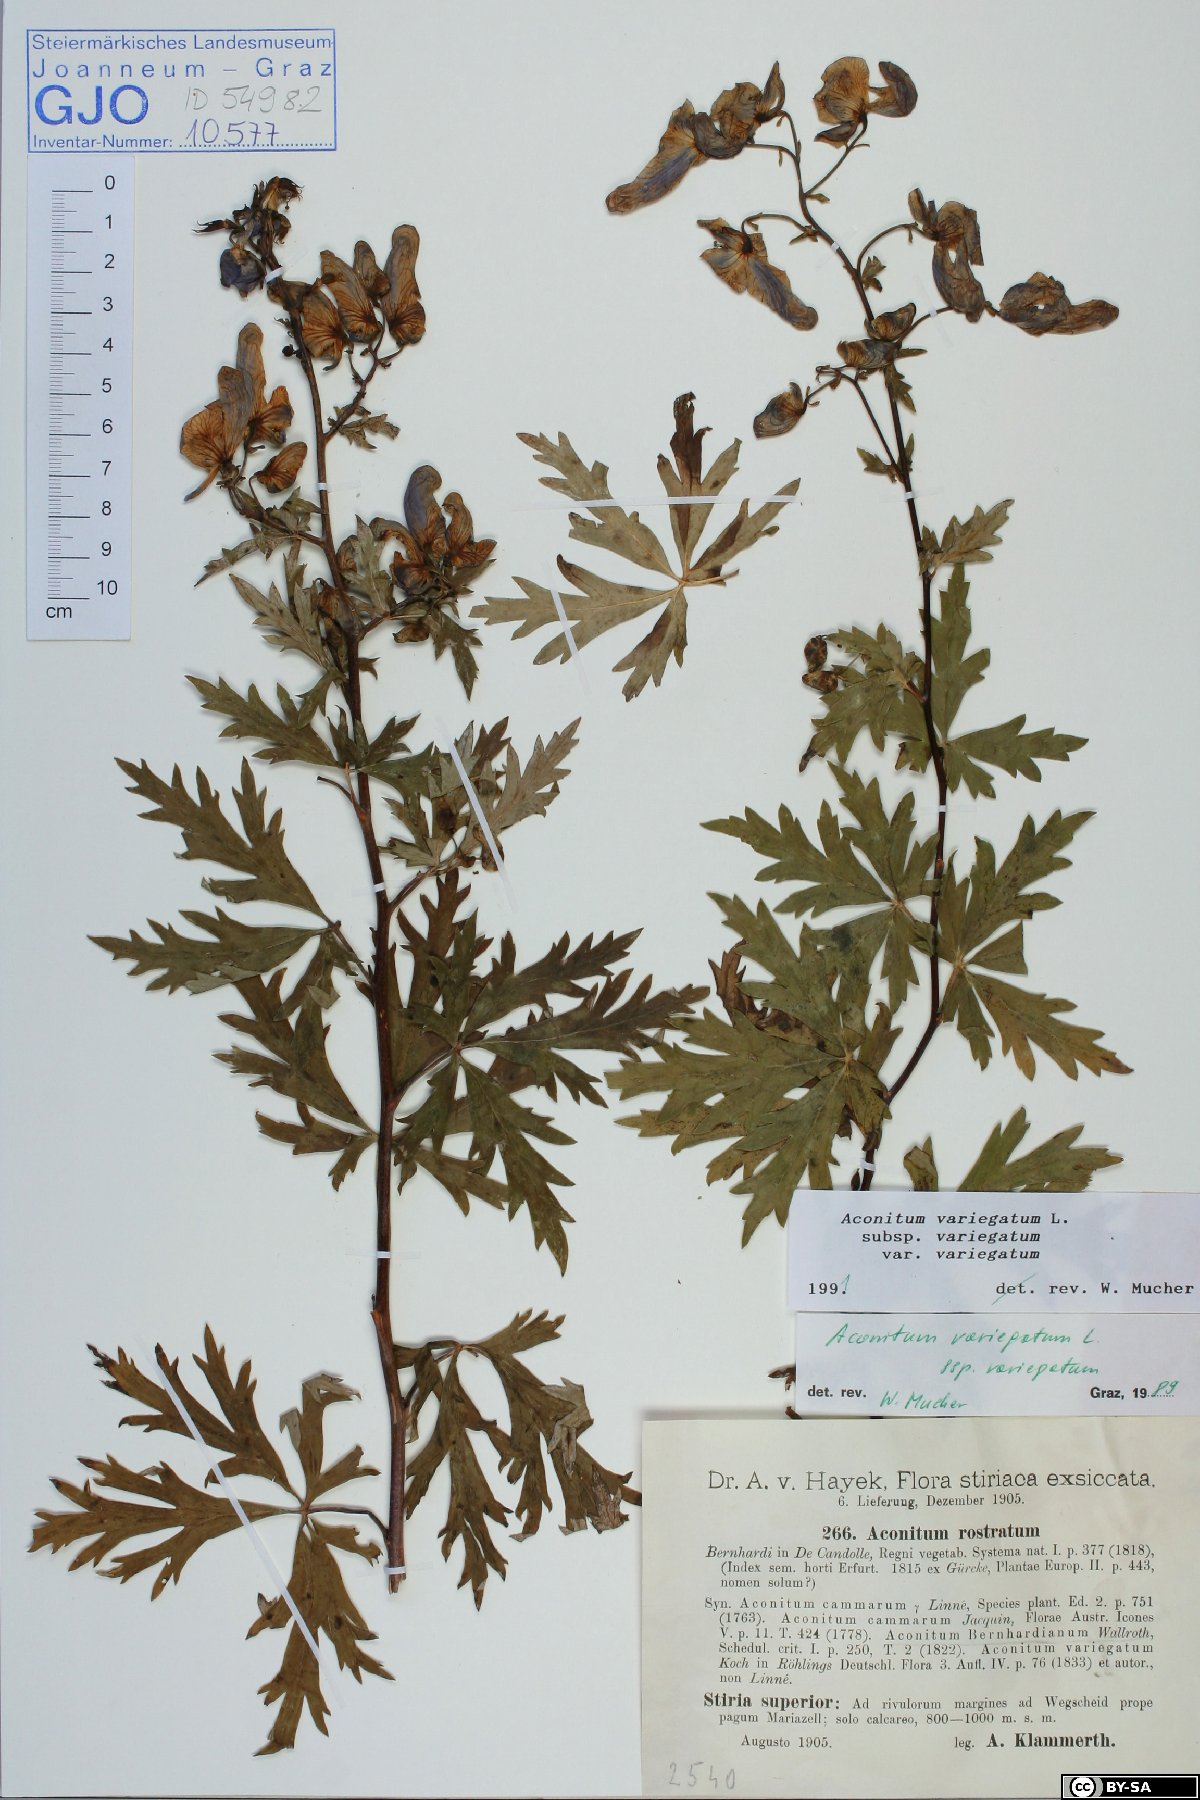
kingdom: Plantae
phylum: Tracheophyta
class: Magnoliopsida
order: Ranunculales
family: Ranunculaceae
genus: Aconitum
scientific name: Aconitum variegatum
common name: Manchurian monkshood
